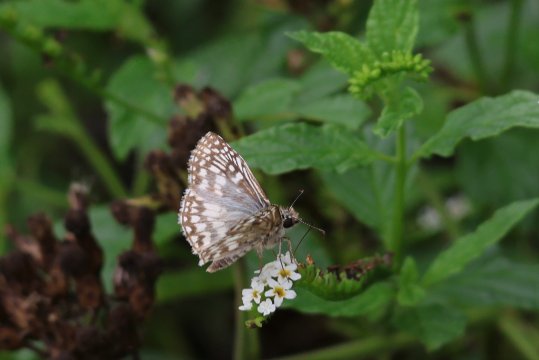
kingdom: Animalia
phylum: Arthropoda
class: Insecta
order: Lepidoptera
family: Hesperiidae
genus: Pyrgus
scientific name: Pyrgus oileus
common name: Desert Checkered-Skipper
